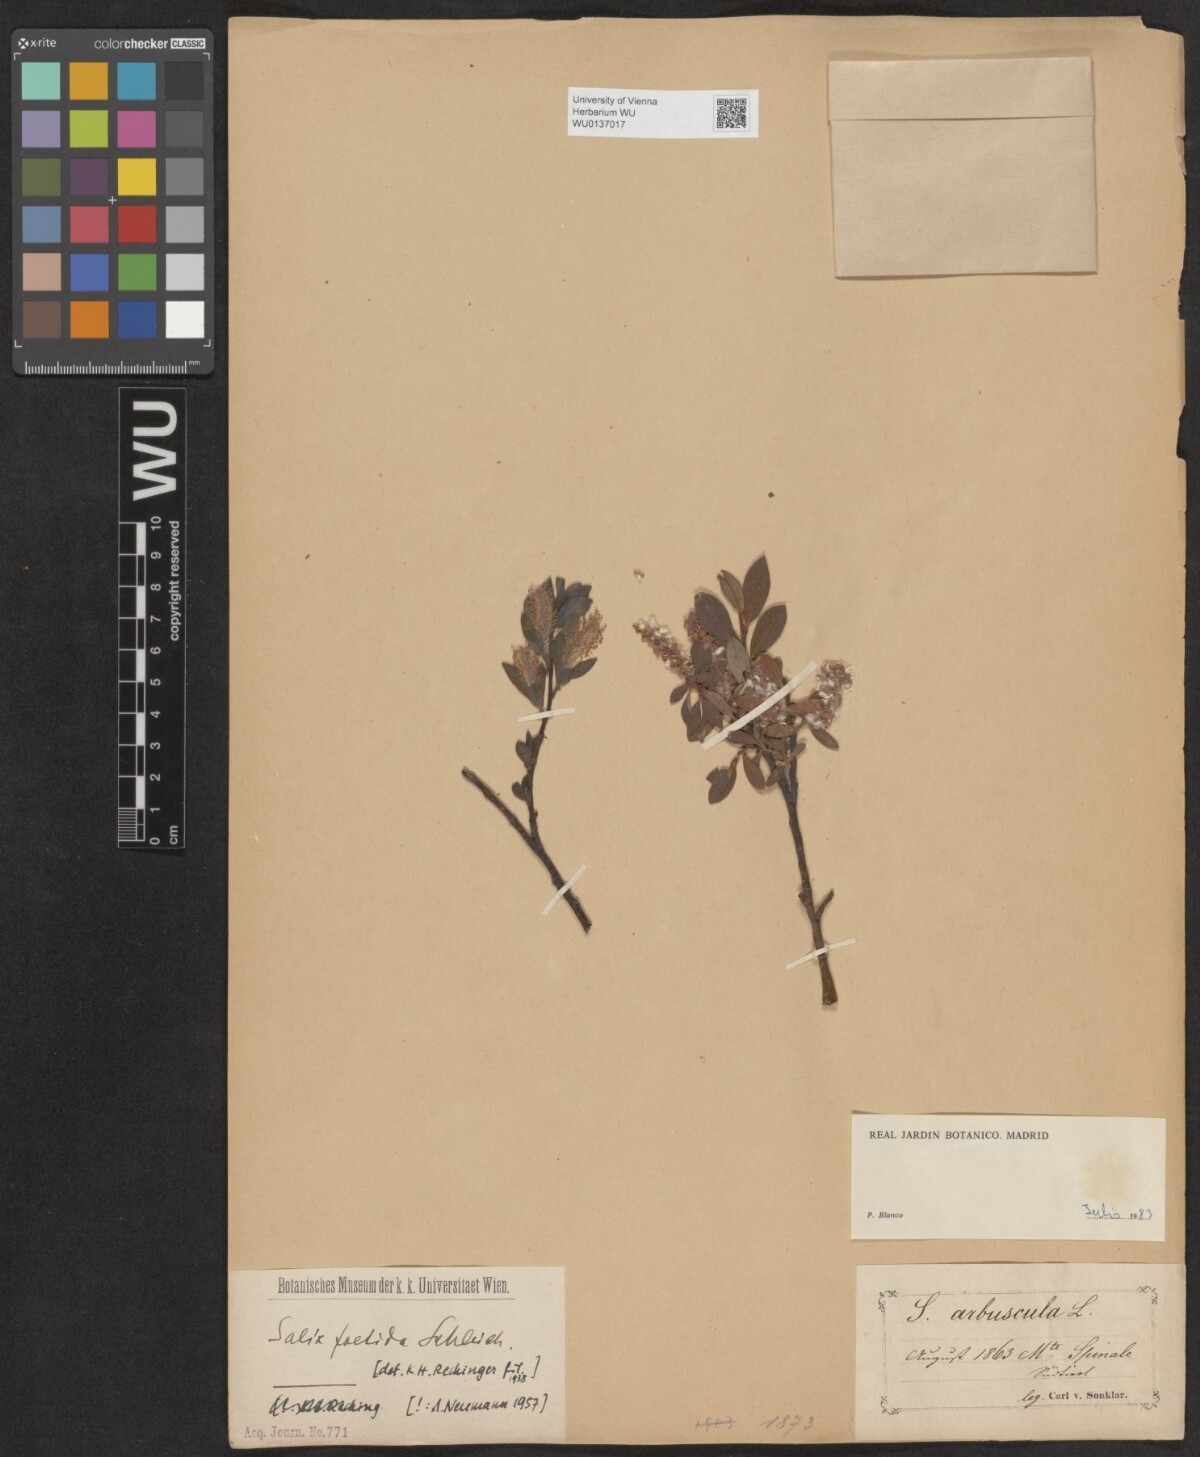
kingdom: Plantae
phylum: Tracheophyta
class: Magnoliopsida
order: Malpighiales
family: Salicaceae
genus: Salix
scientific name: Salix foetida
